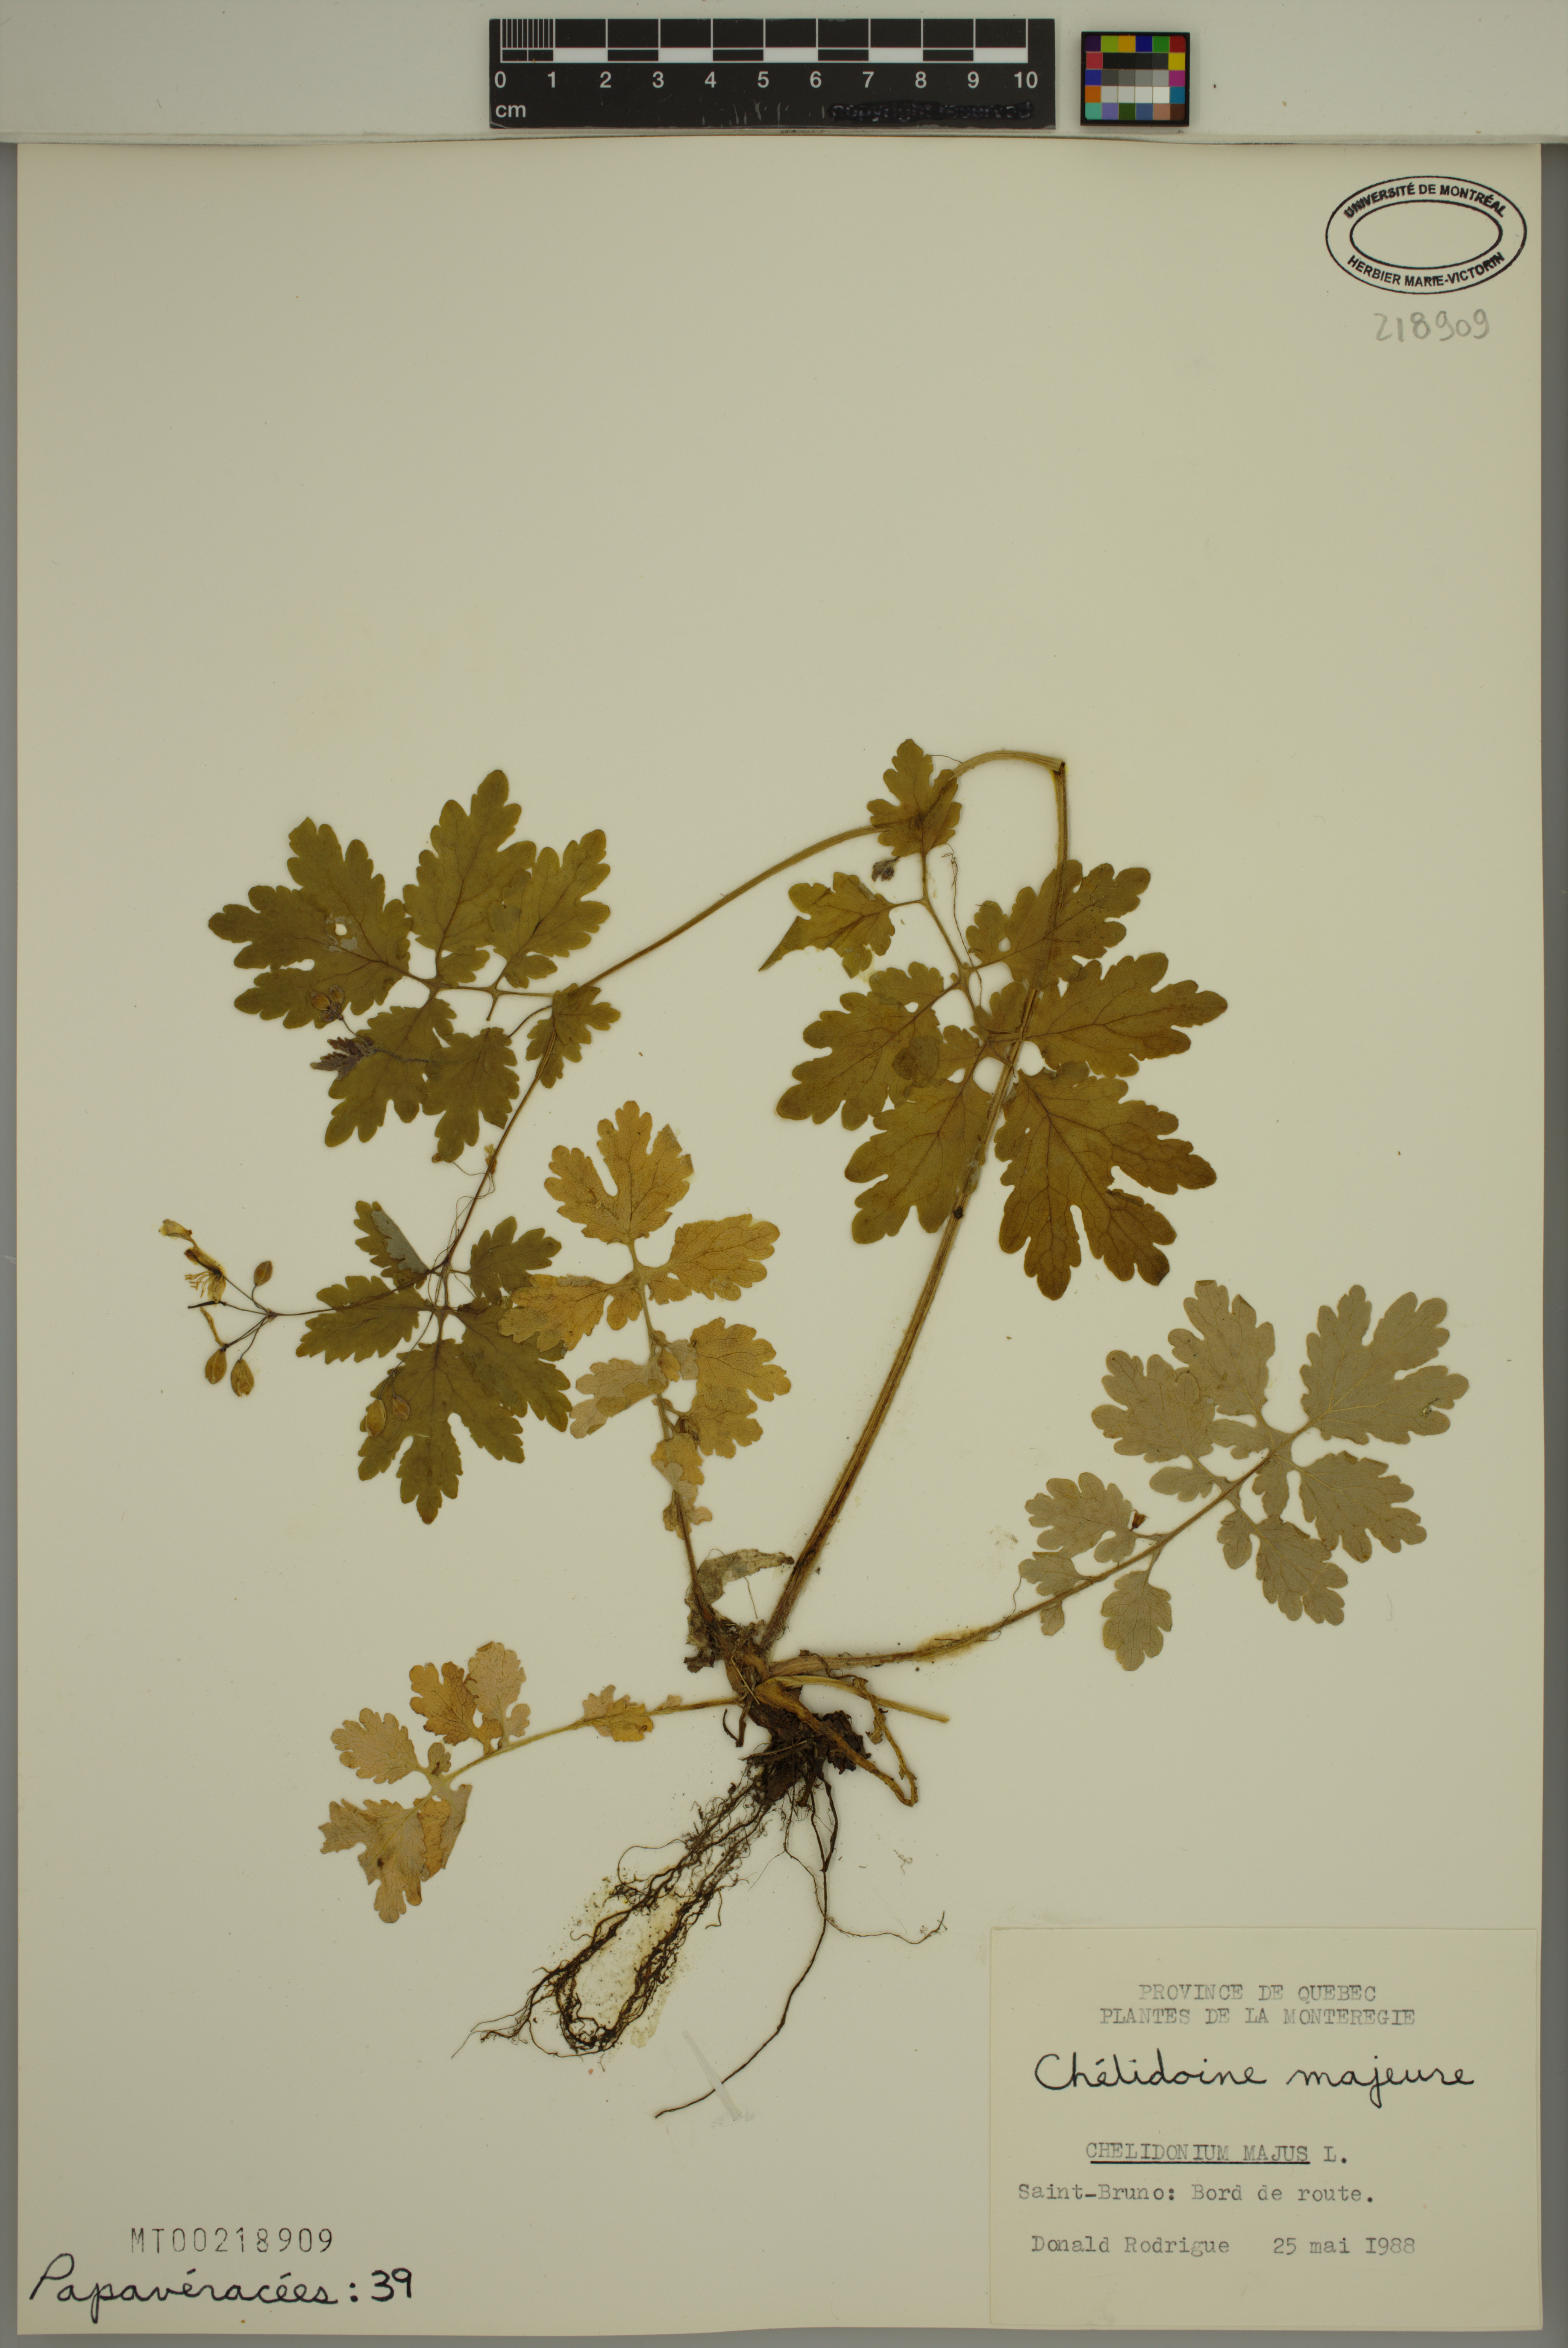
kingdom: Plantae
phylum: Tracheophyta
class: Magnoliopsida
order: Ranunculales
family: Papaveraceae
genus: Chelidonium
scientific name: Chelidonium majus
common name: Greater celandine
